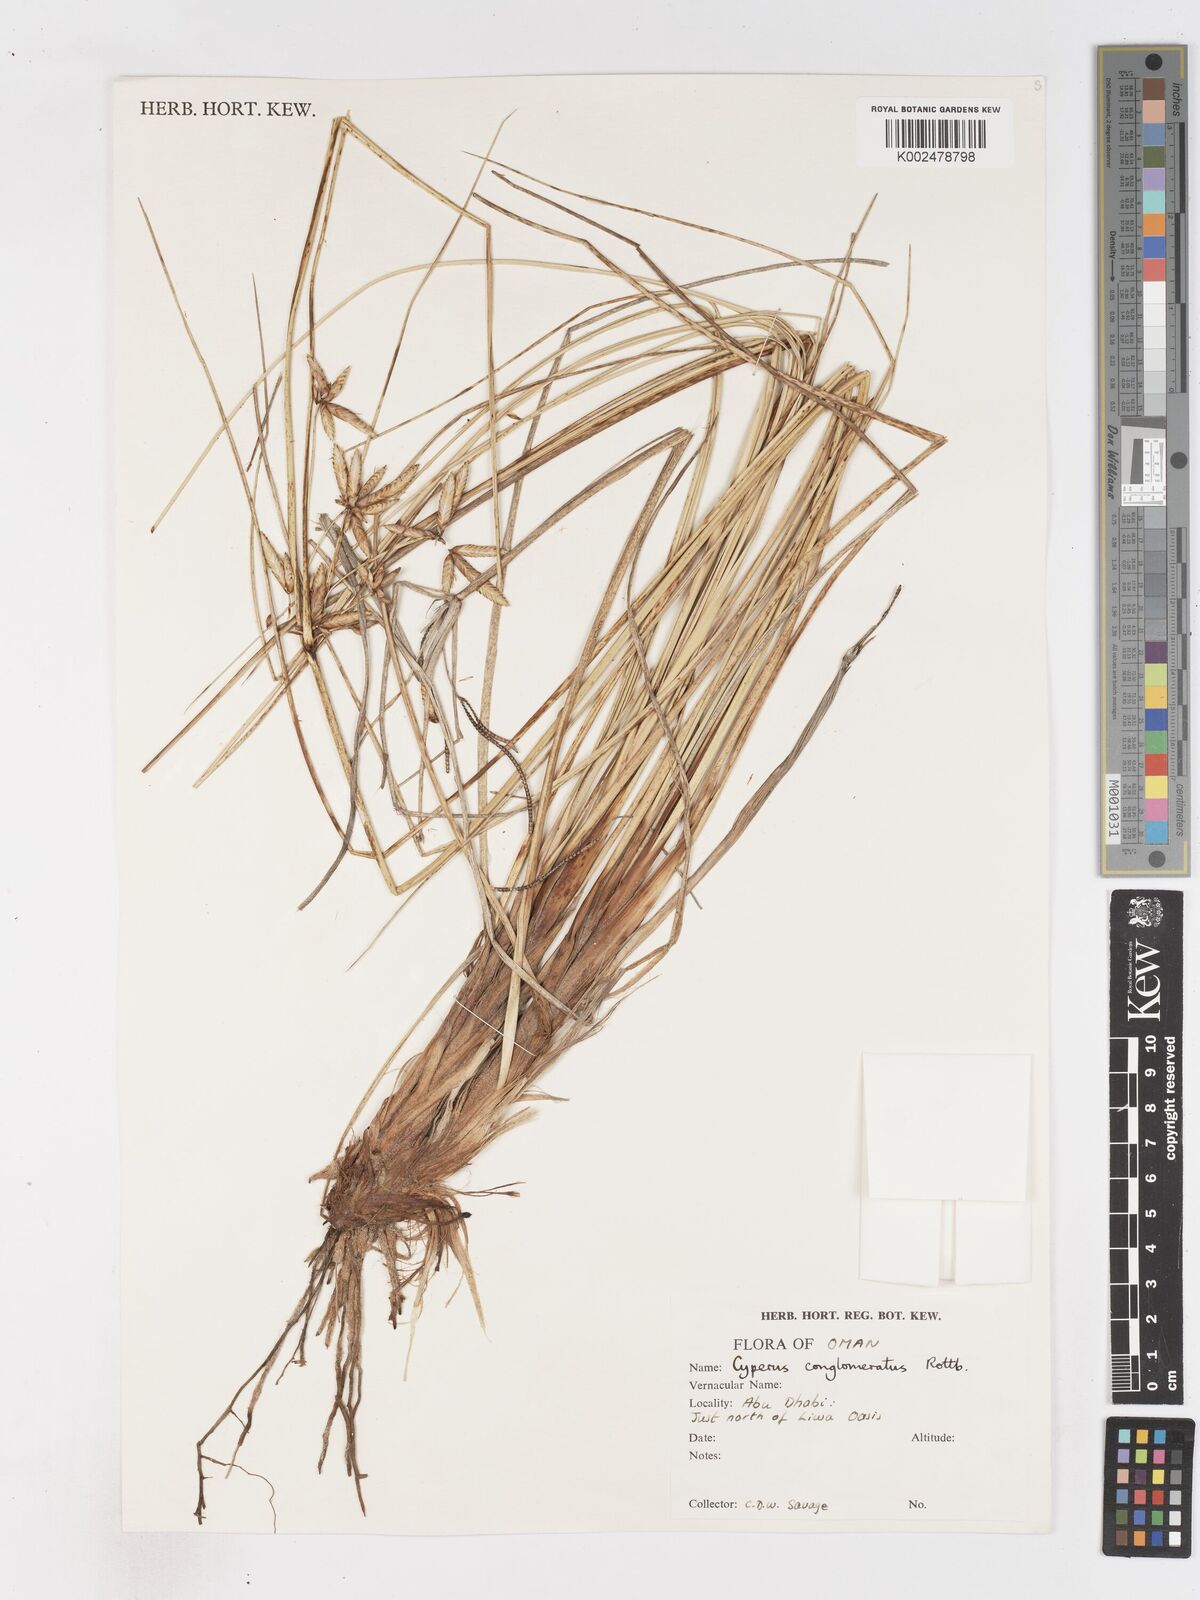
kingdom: Plantae
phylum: Tracheophyta
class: Liliopsida
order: Poales
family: Cyperaceae
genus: Cyperus
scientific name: Cyperus aucheri
